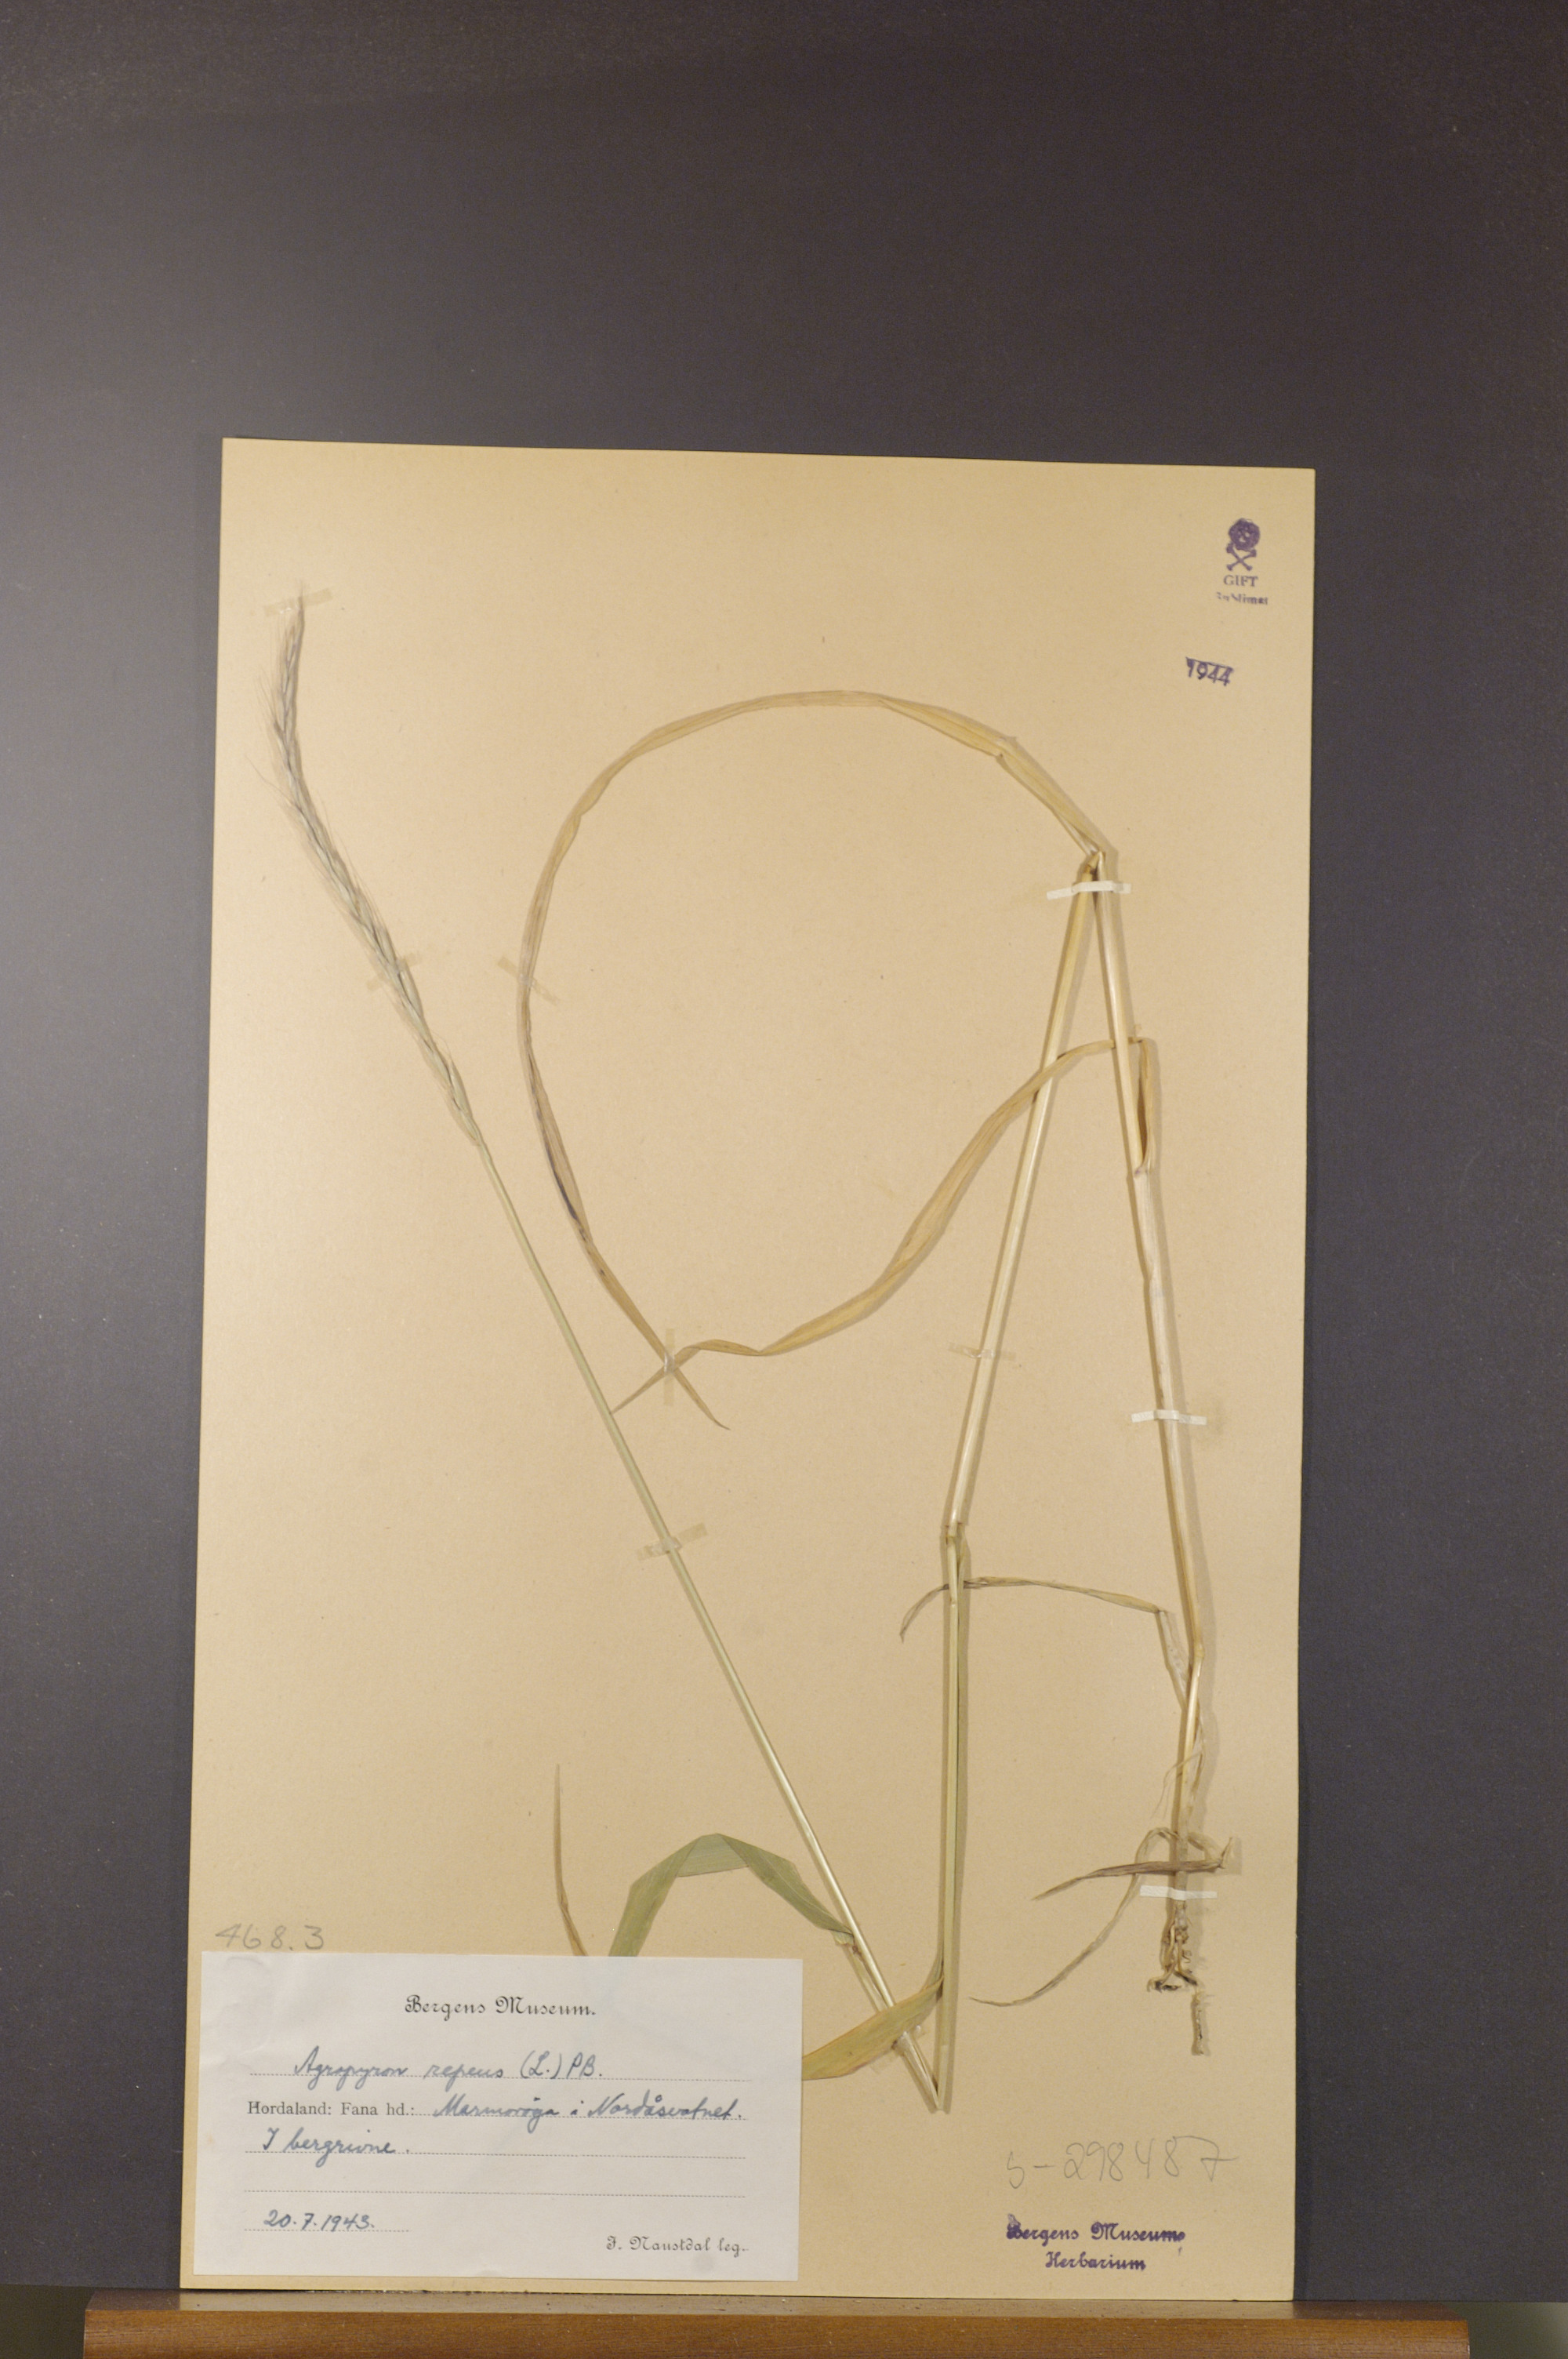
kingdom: Plantae
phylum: Tracheophyta
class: Liliopsida
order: Poales
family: Poaceae
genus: Elymus
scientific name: Elymus repens
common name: Quackgrass
